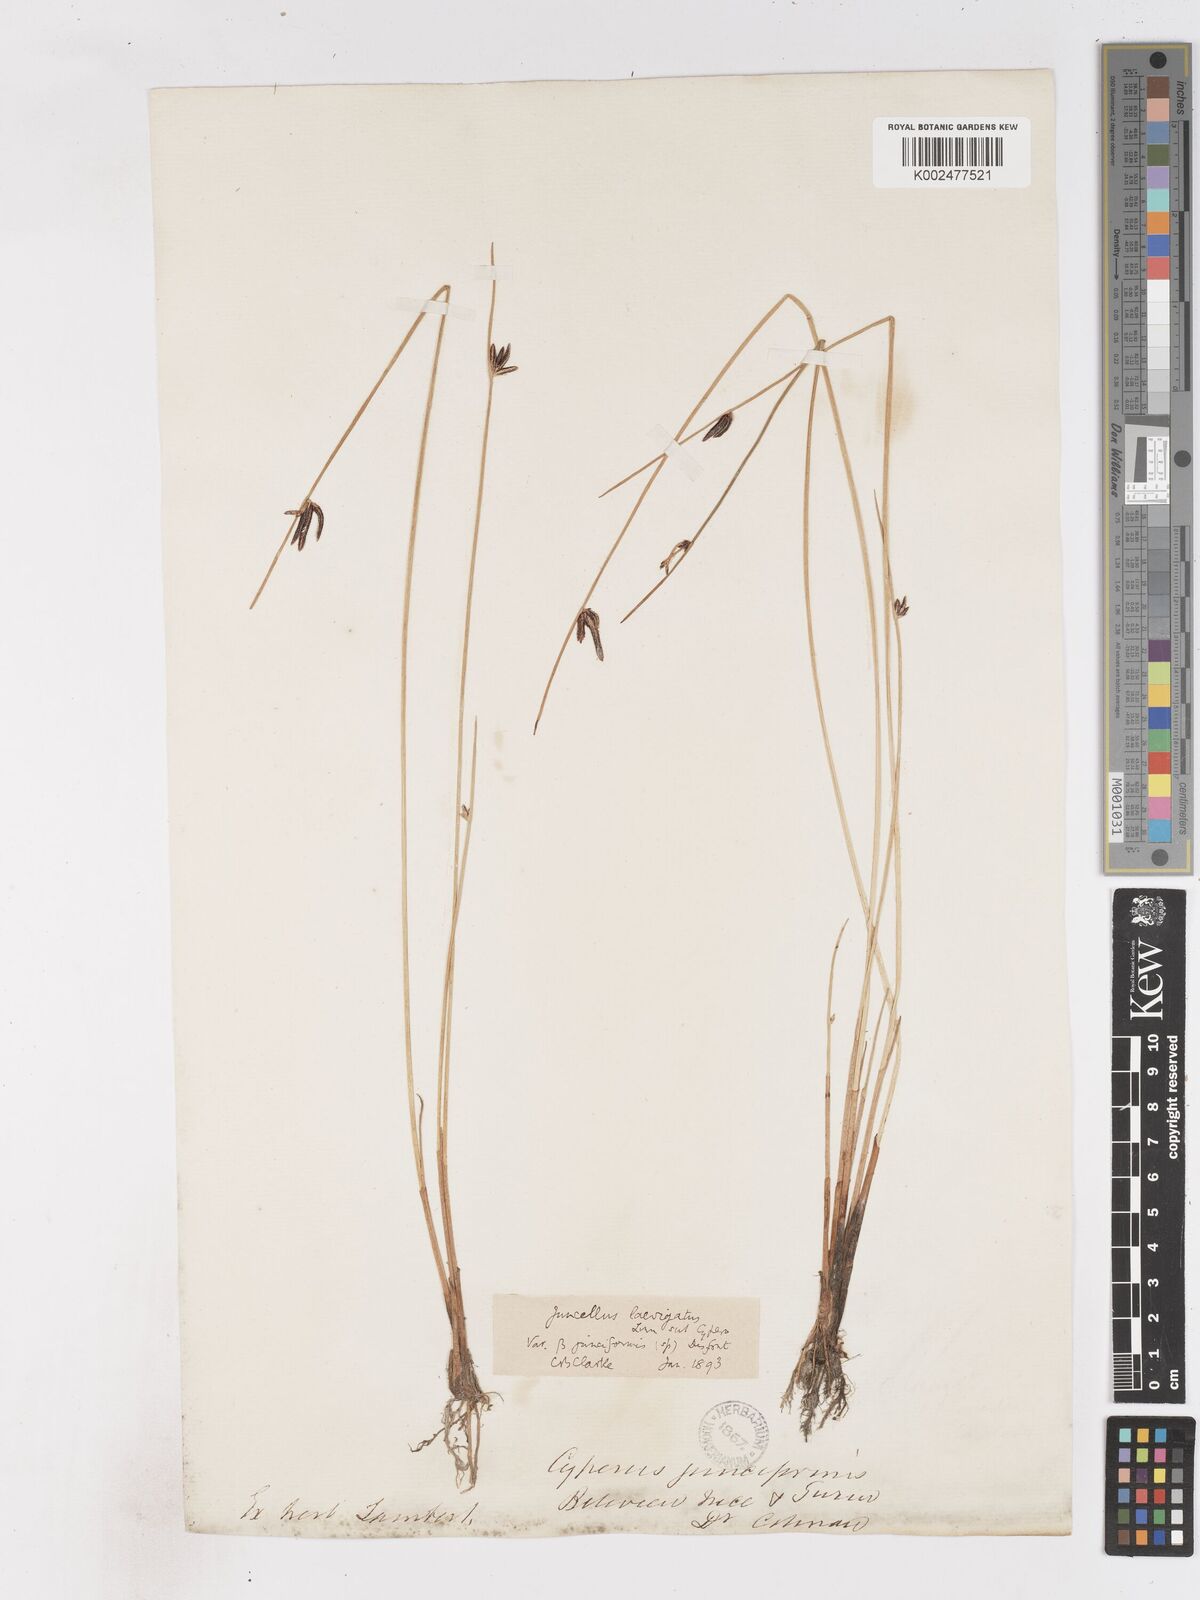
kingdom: Plantae
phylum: Tracheophyta
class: Liliopsida
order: Poales
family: Cyperaceae
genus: Cyperus
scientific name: Cyperus laevigatus
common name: Smooth flat sedge
